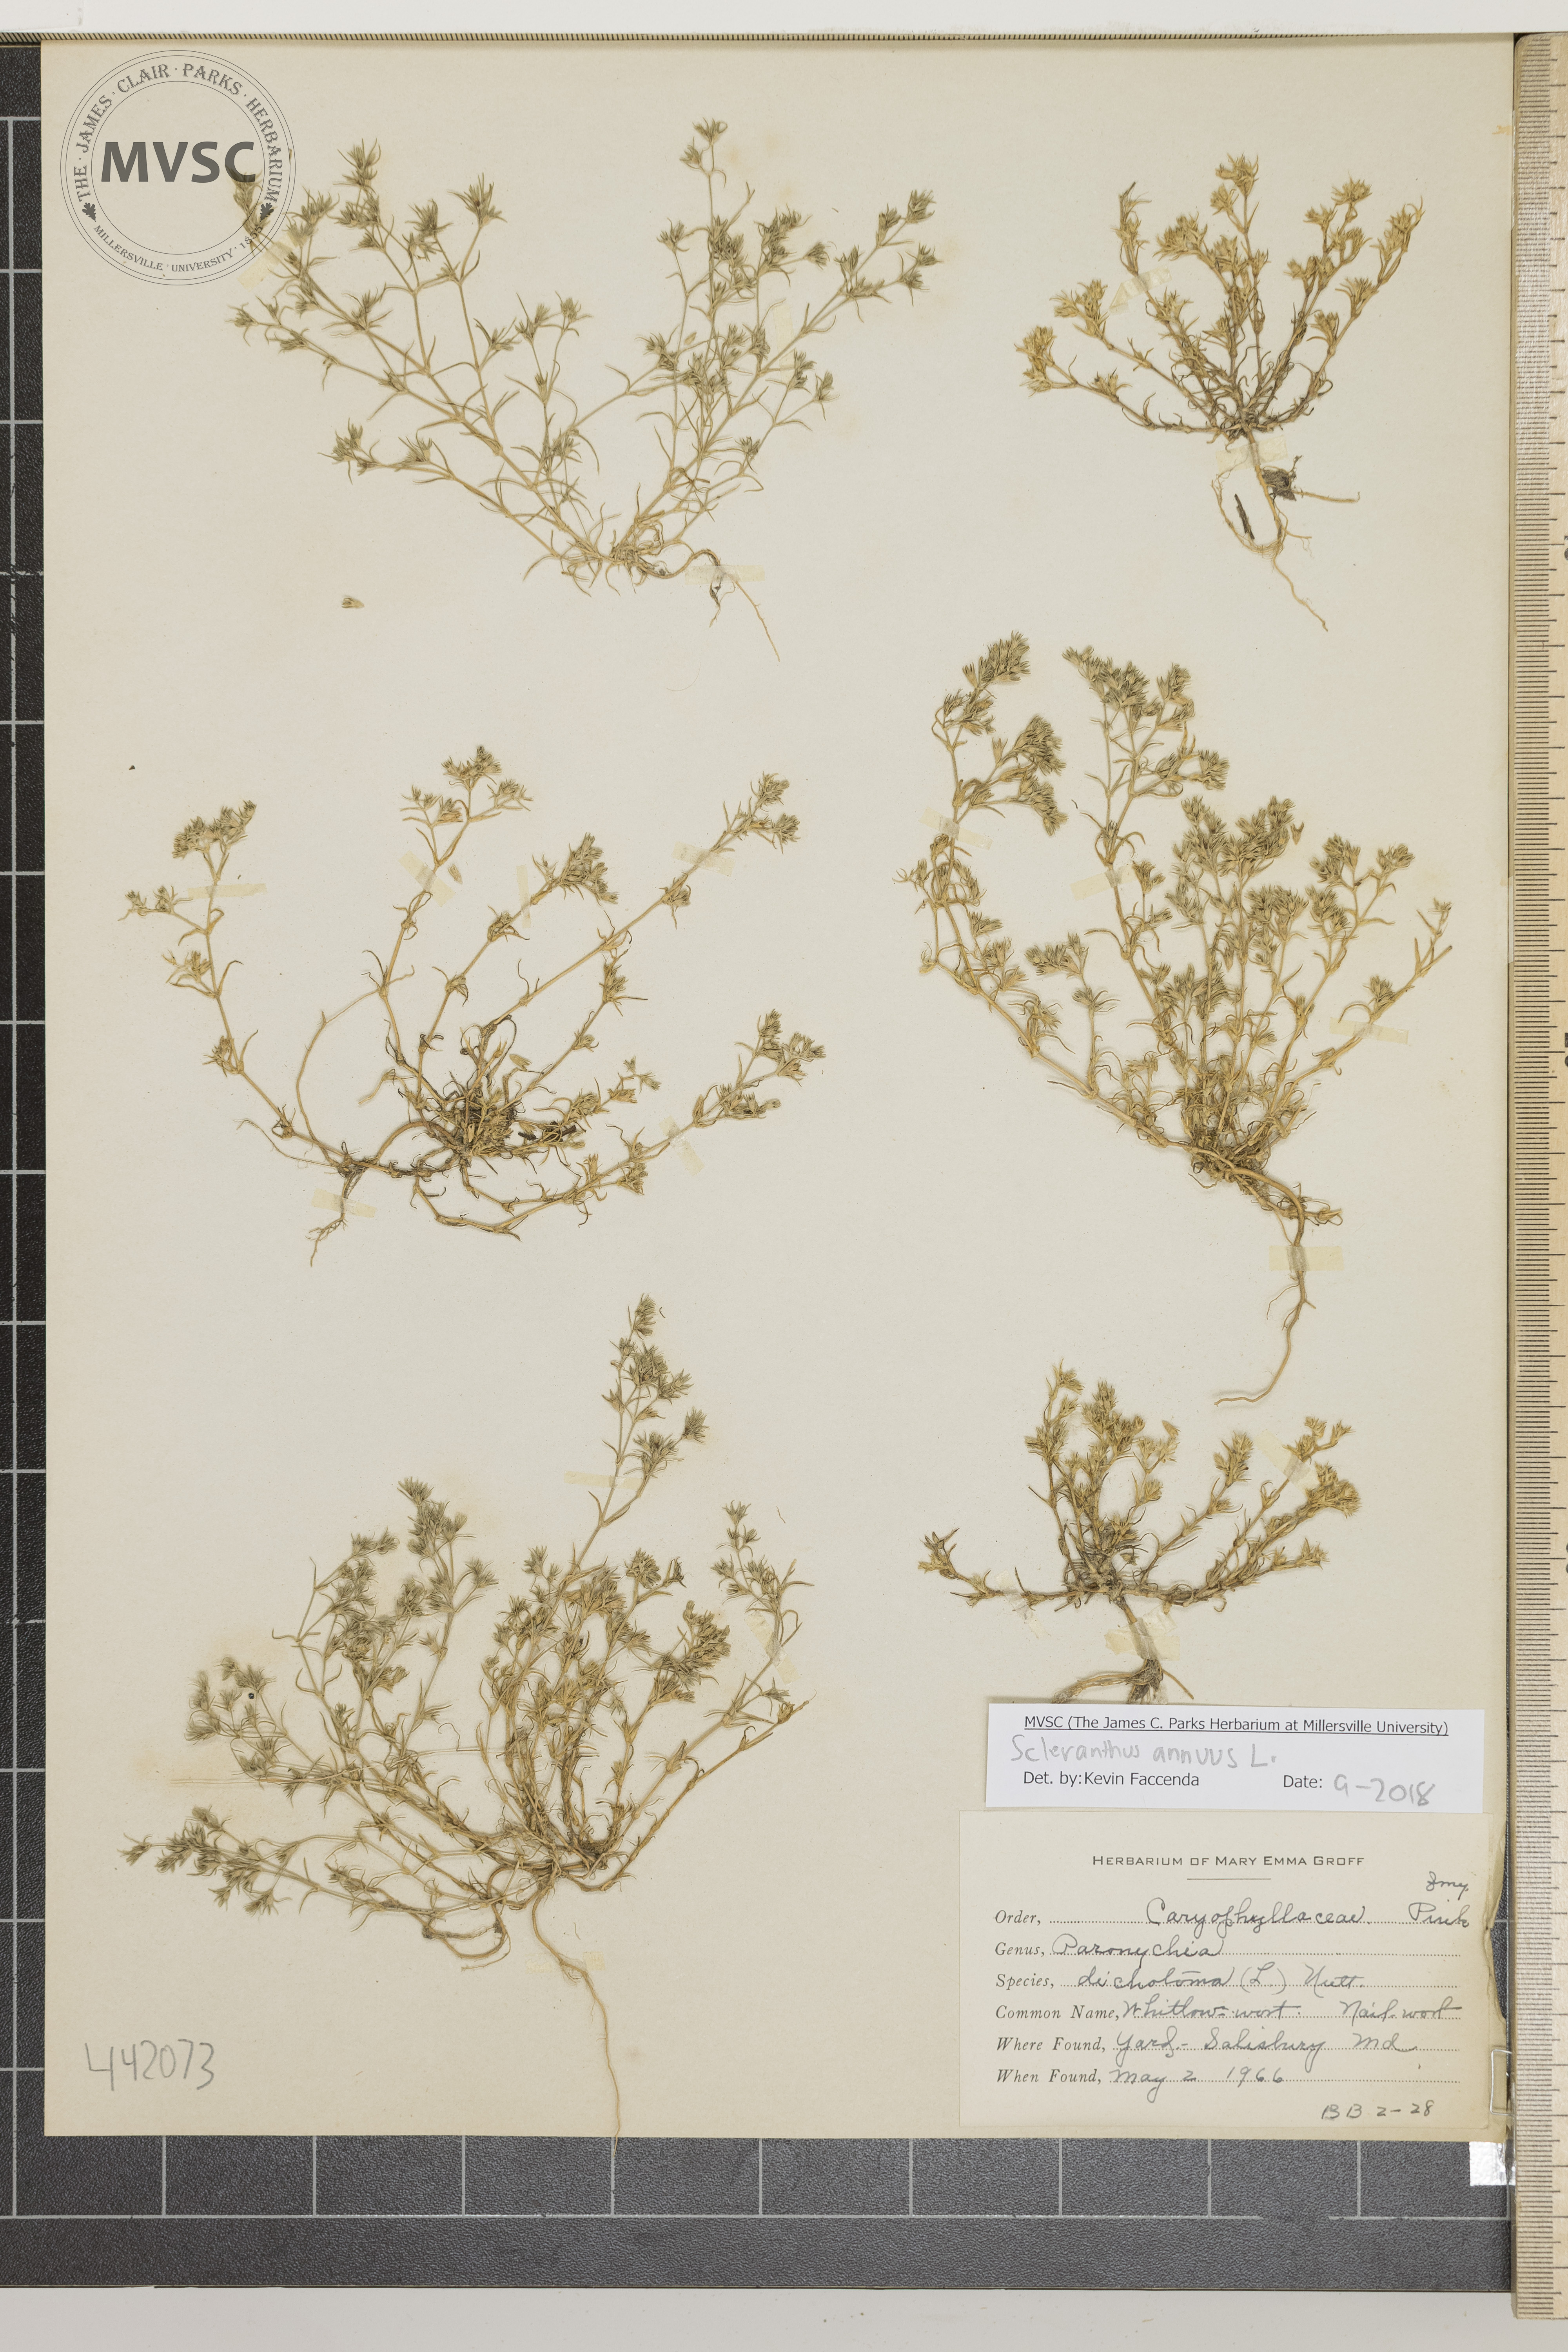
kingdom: Plantae
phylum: Tracheophyta
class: Magnoliopsida
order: Caryophyllales
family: Caryophyllaceae
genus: Scleranthus
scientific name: Scleranthus annuus
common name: Whitlow-wort
